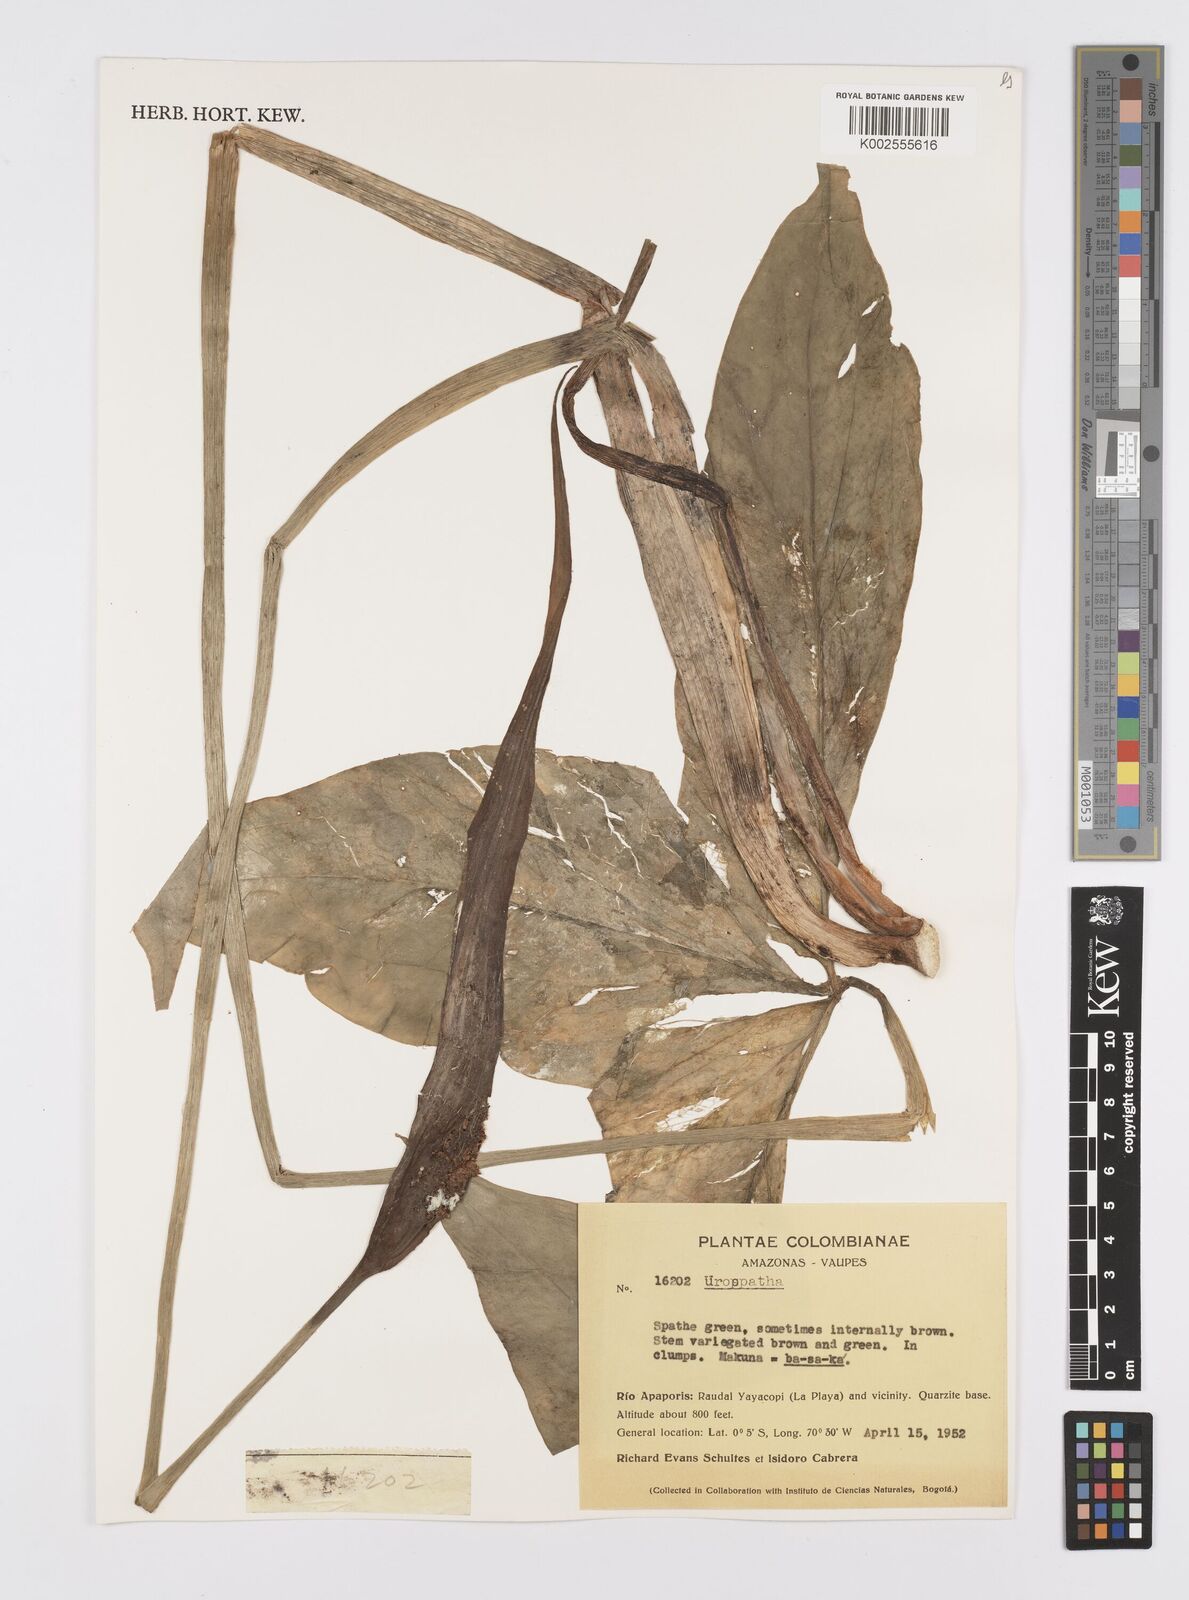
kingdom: Plantae
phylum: Tracheophyta
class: Liliopsida
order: Alismatales
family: Araceae
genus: Urospatha
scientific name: Urospatha
